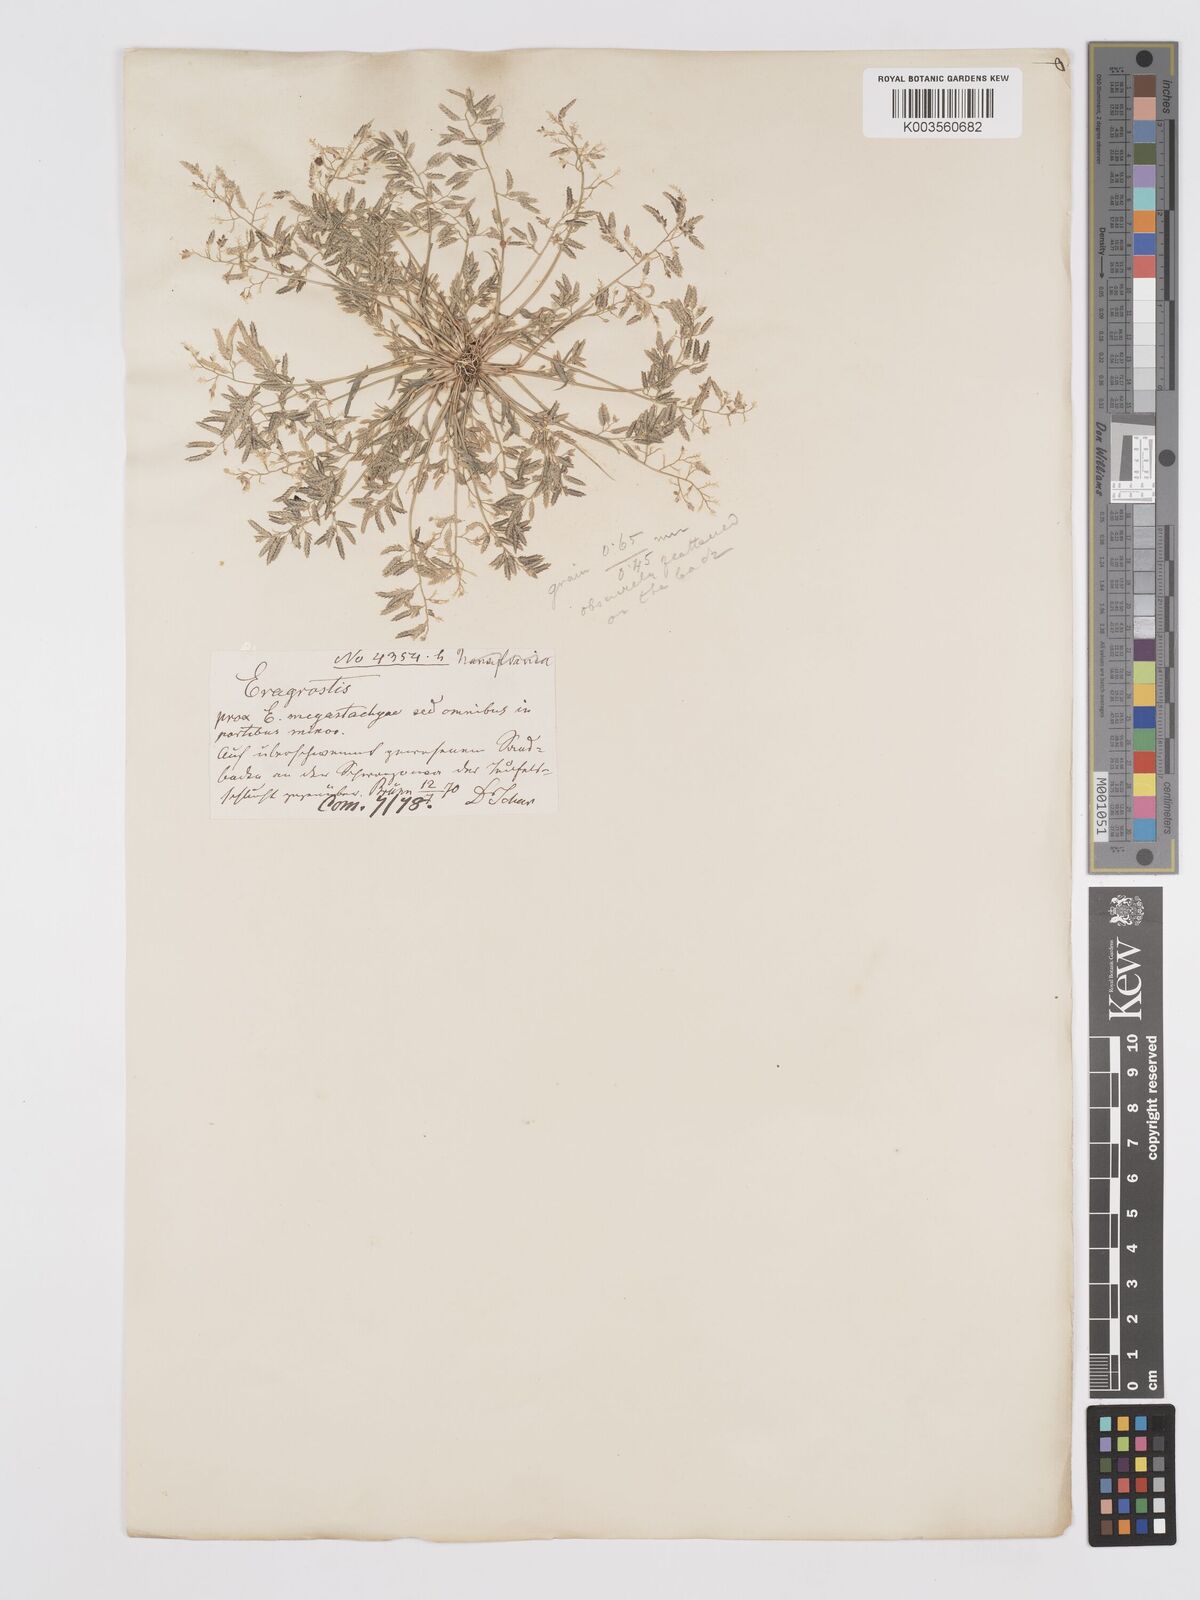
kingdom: Plantae
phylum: Tracheophyta
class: Liliopsida
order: Poales
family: Poaceae
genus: Eragrostis
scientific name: Eragrostis minor
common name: Small love-grass
